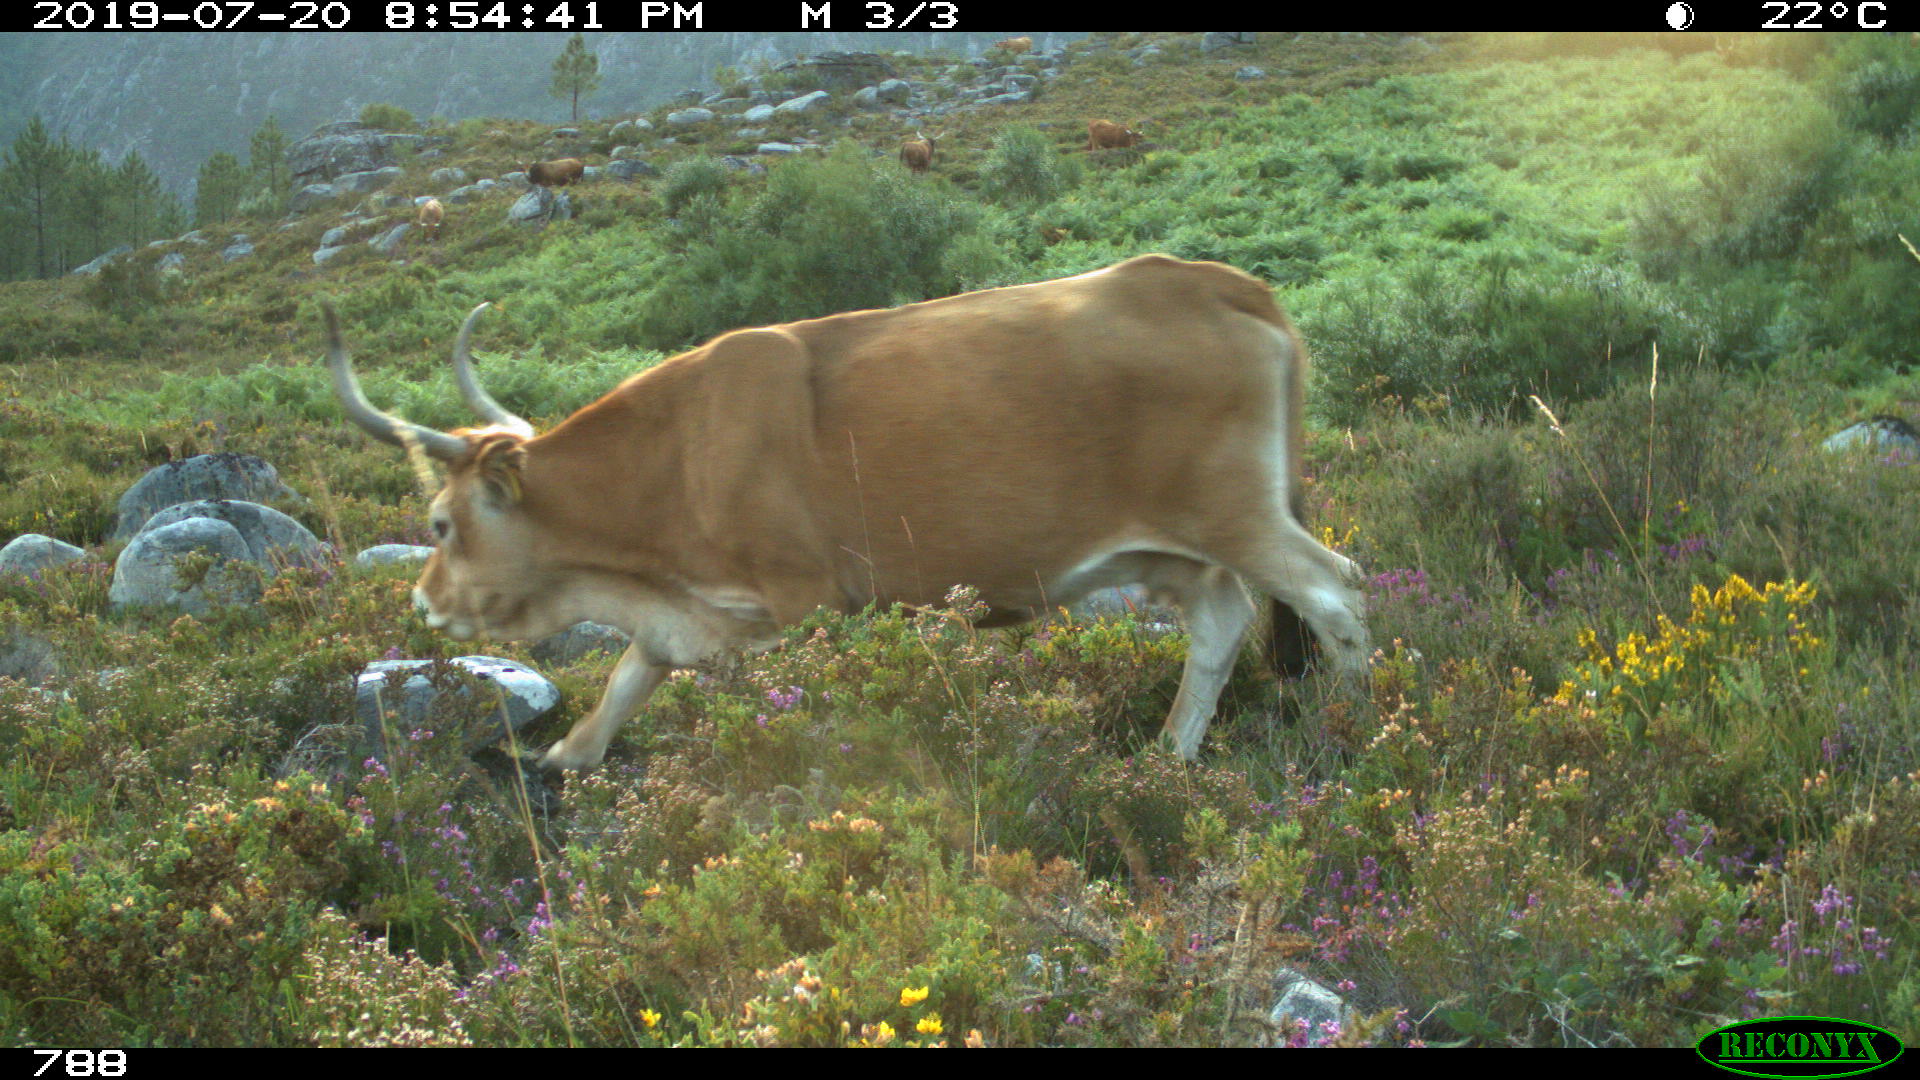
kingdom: Animalia
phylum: Chordata
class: Mammalia
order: Artiodactyla
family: Bovidae
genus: Bos
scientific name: Bos taurus
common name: Domesticated cattle
